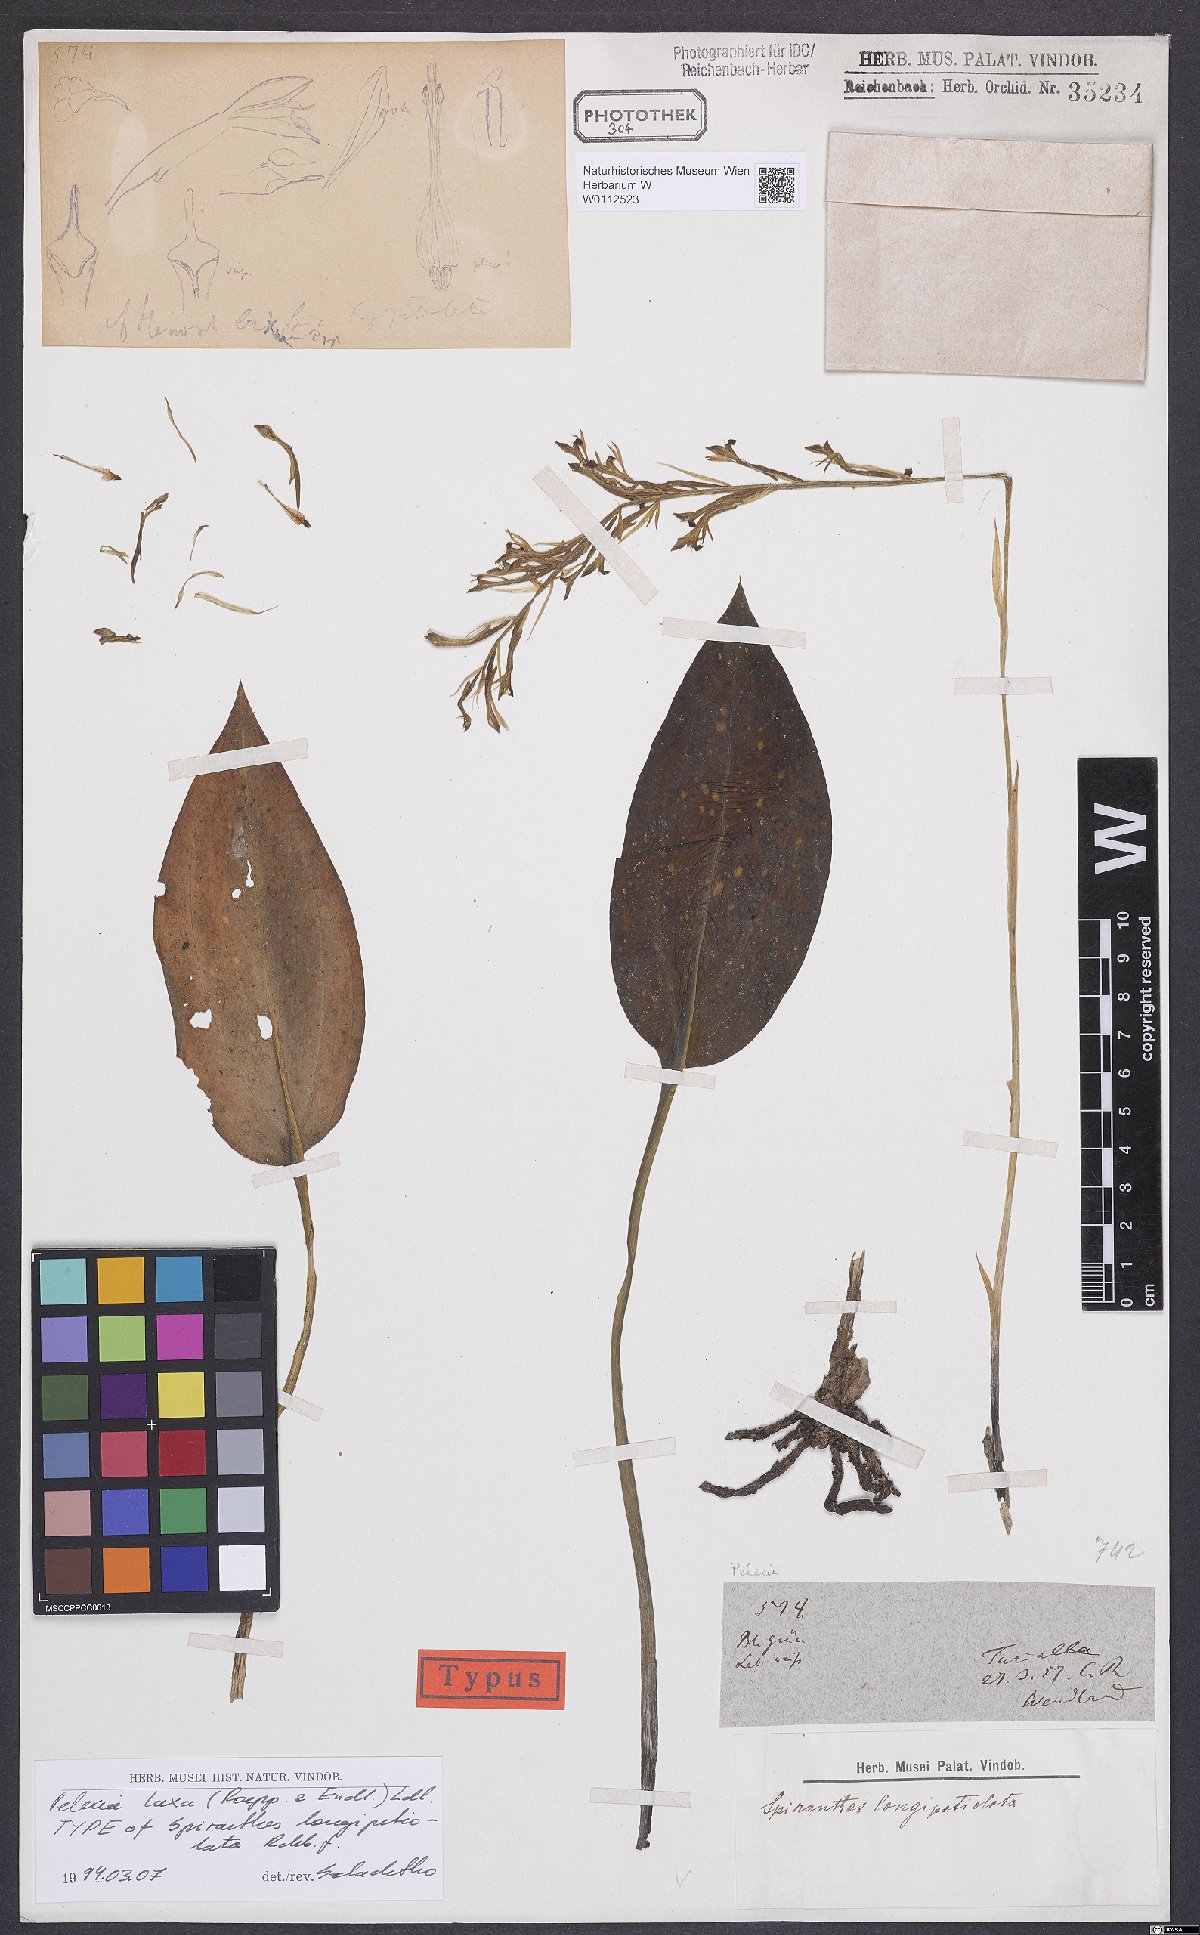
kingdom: Plantae
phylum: Tracheophyta
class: Liliopsida
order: Asparagales
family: Orchidaceae
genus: Pelexia
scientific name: Pelexia laxa
